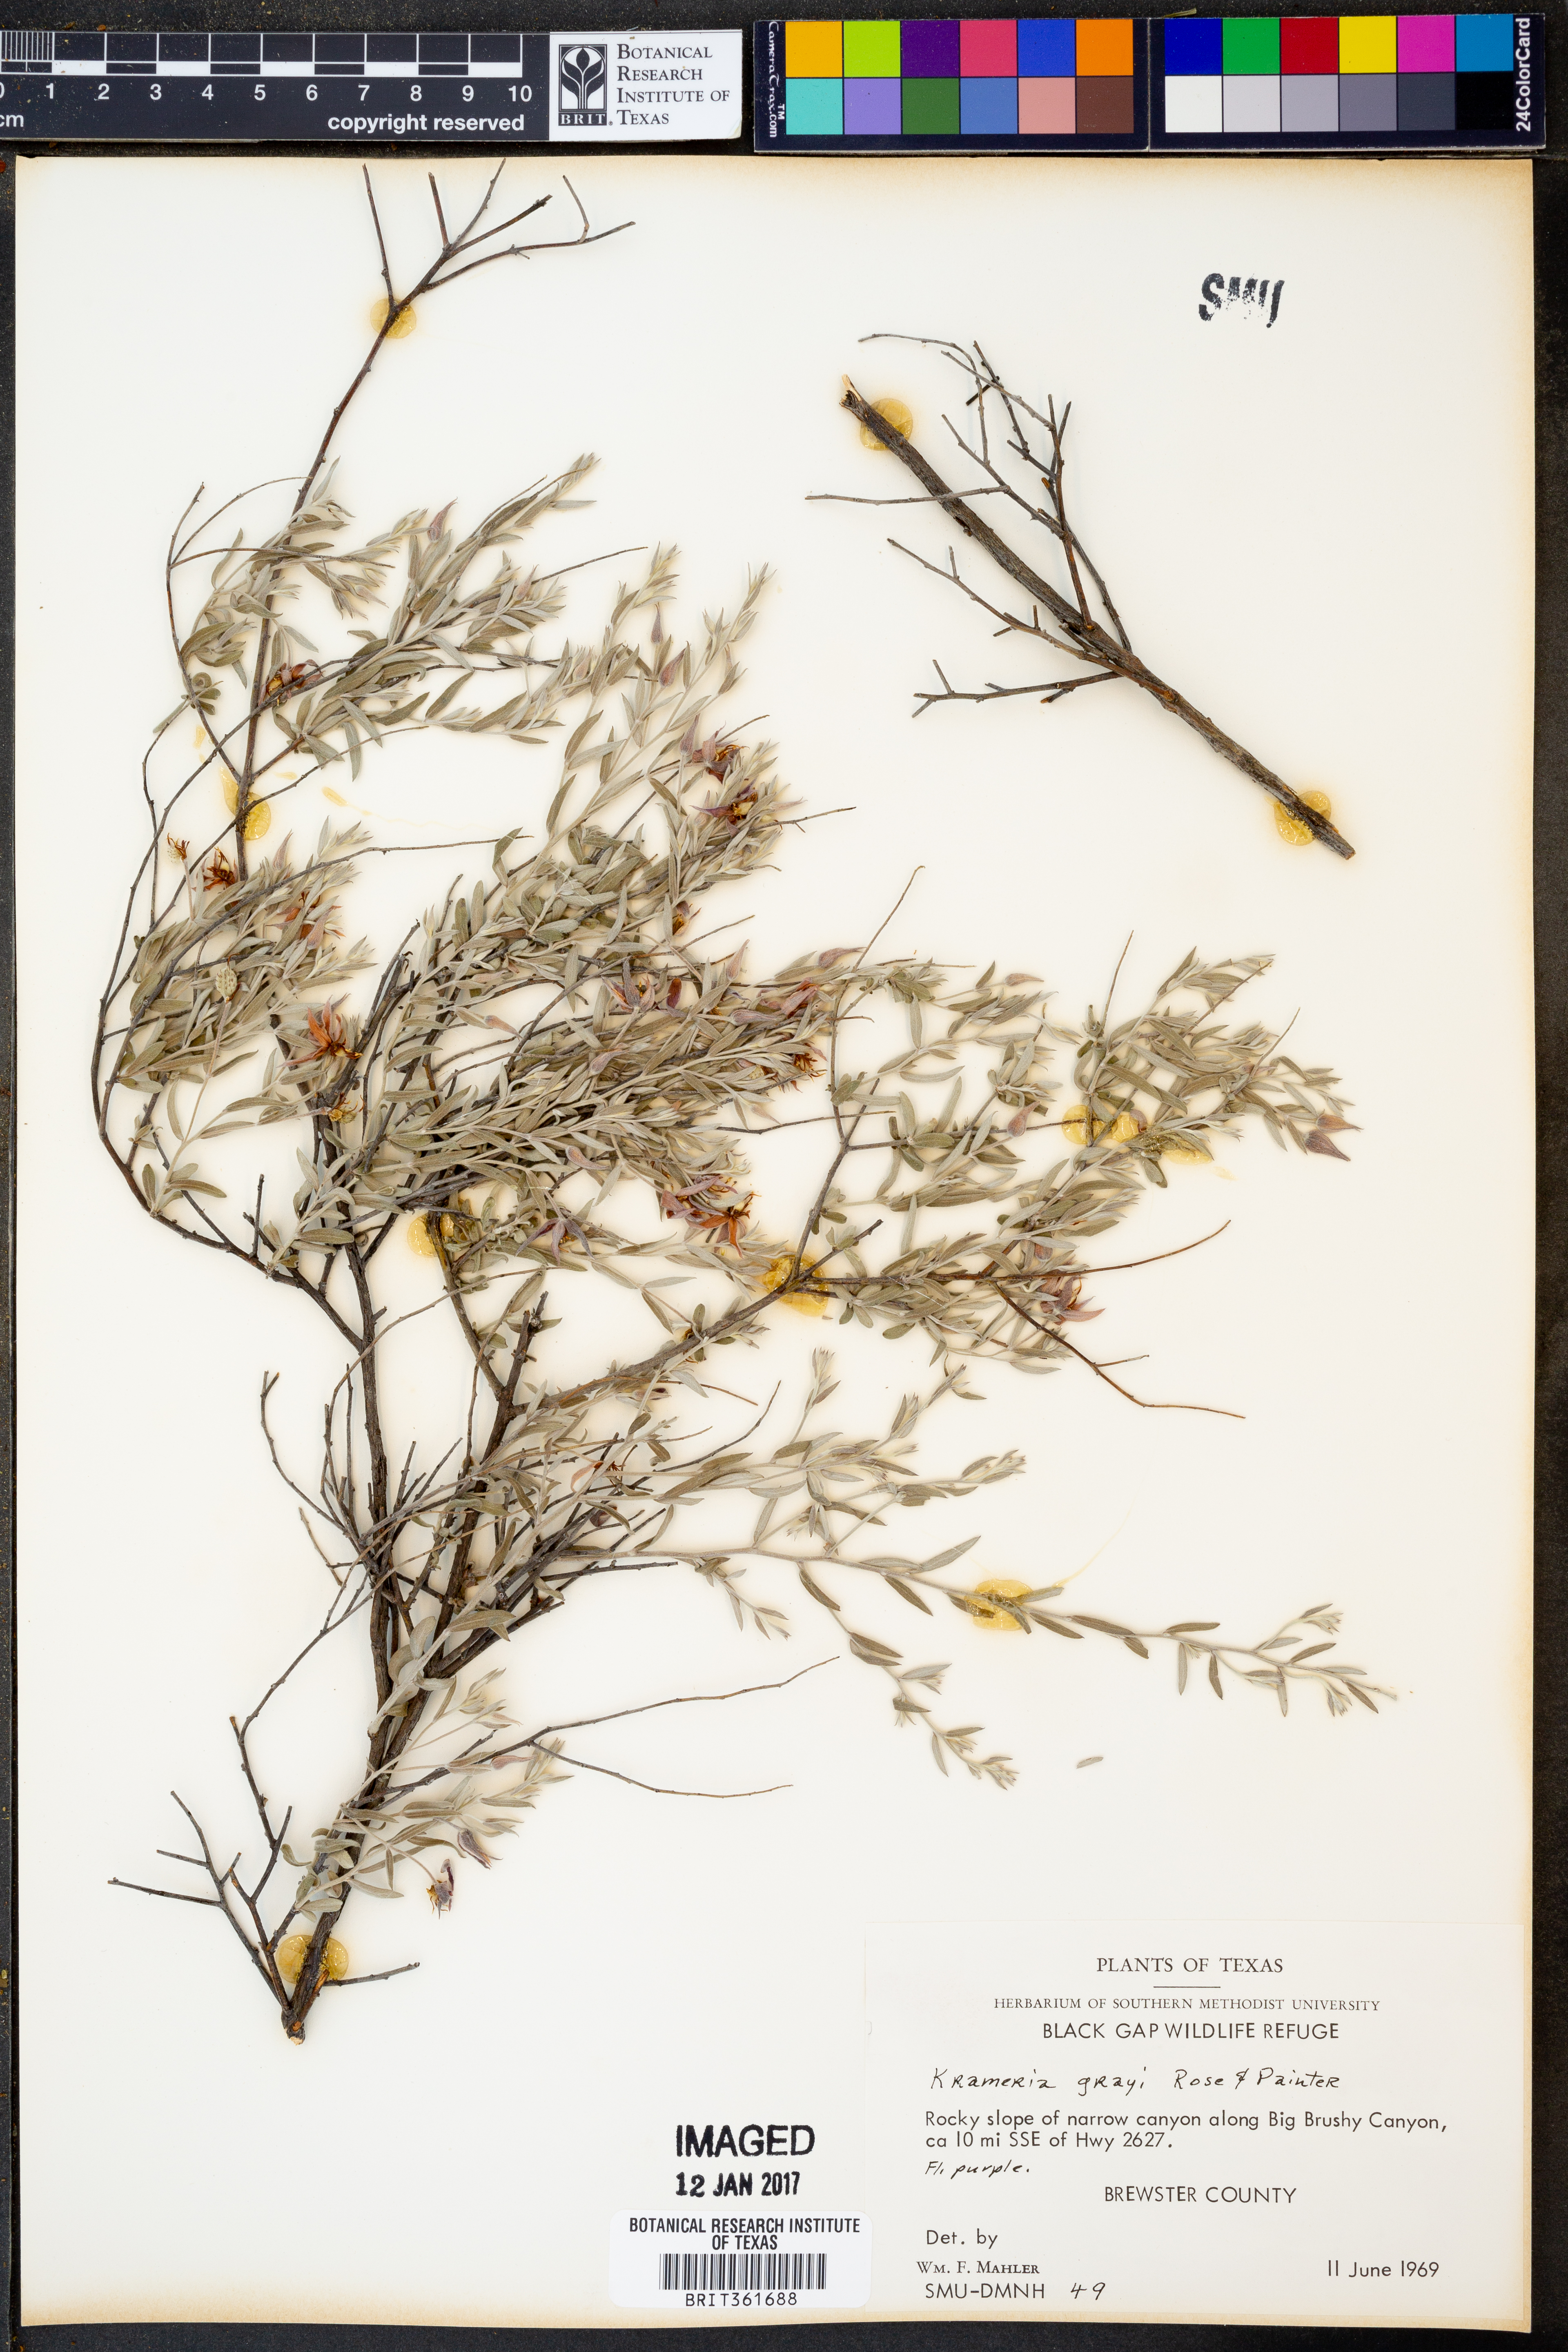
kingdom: Plantae
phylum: Tracheophyta
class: Magnoliopsida
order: Zygophyllales
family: Krameriaceae
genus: Krameria
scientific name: Krameria bicolor
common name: White ratany
